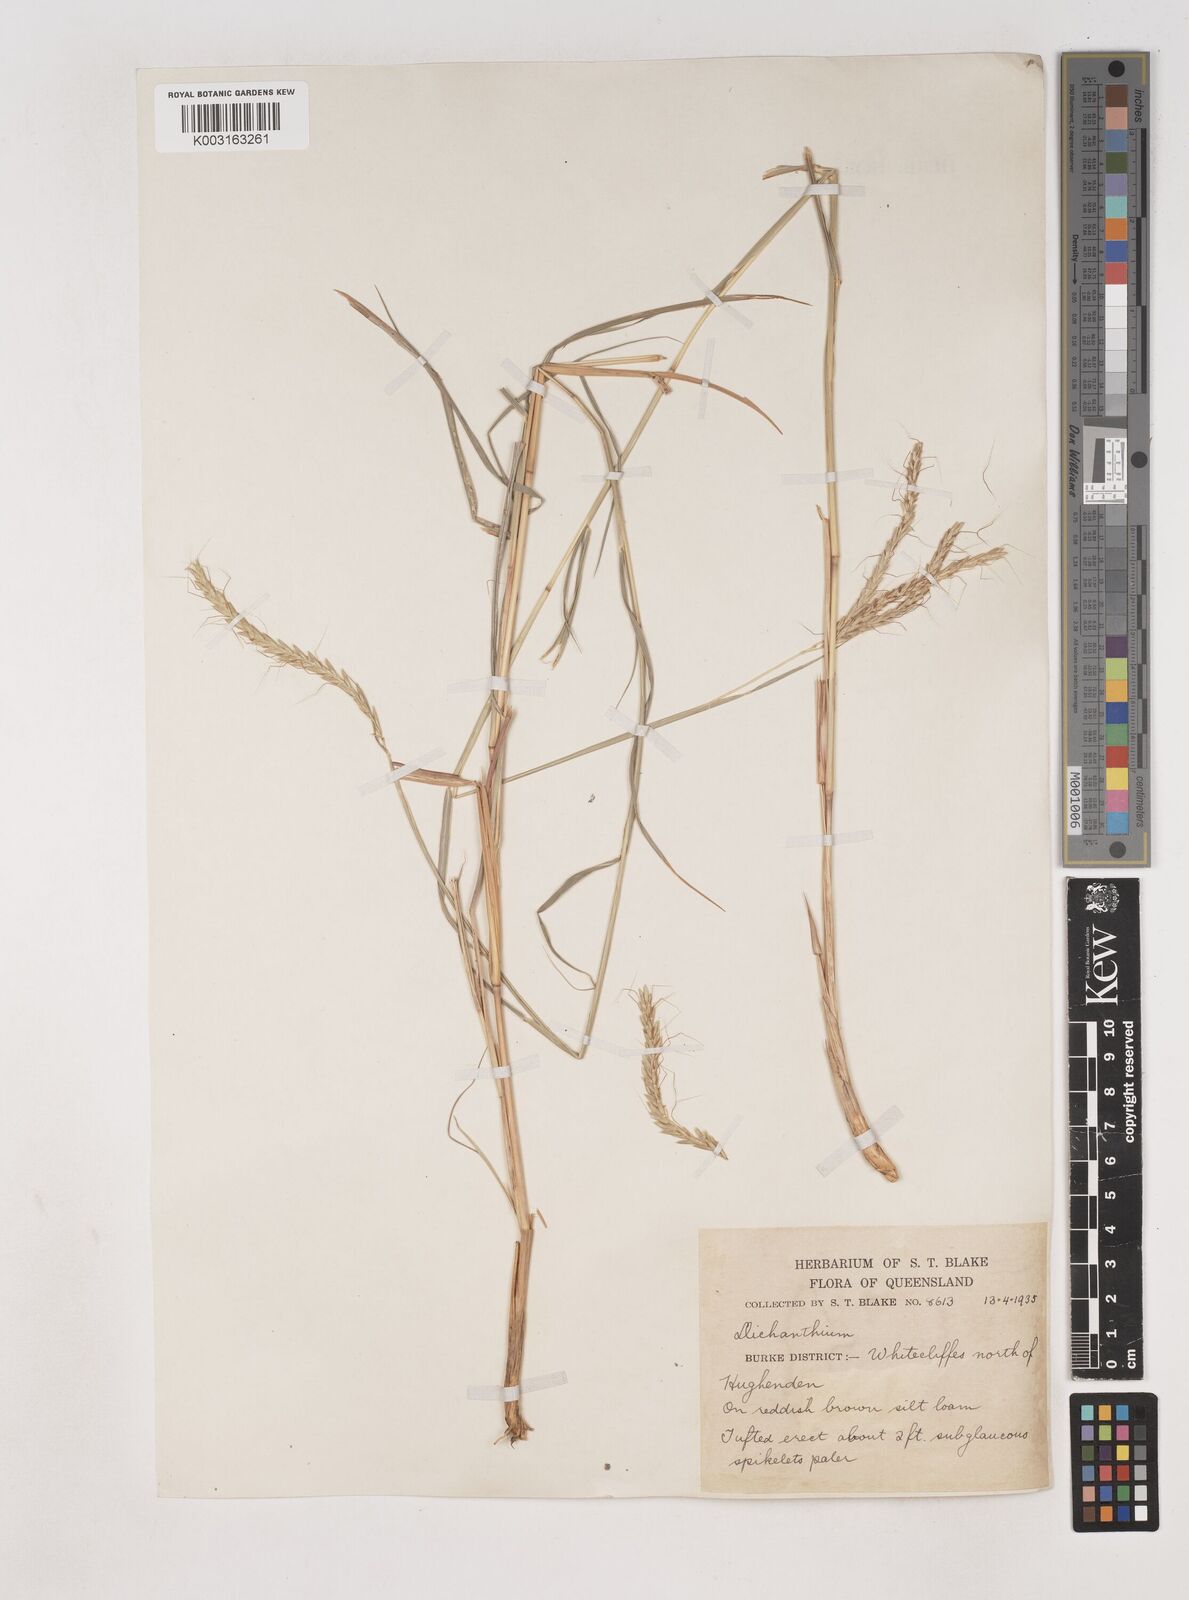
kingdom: Plantae
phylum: Tracheophyta
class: Liliopsida
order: Poales
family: Poaceae
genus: Dichanthium
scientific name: Dichanthium fecundum
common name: Bundle-bundle
